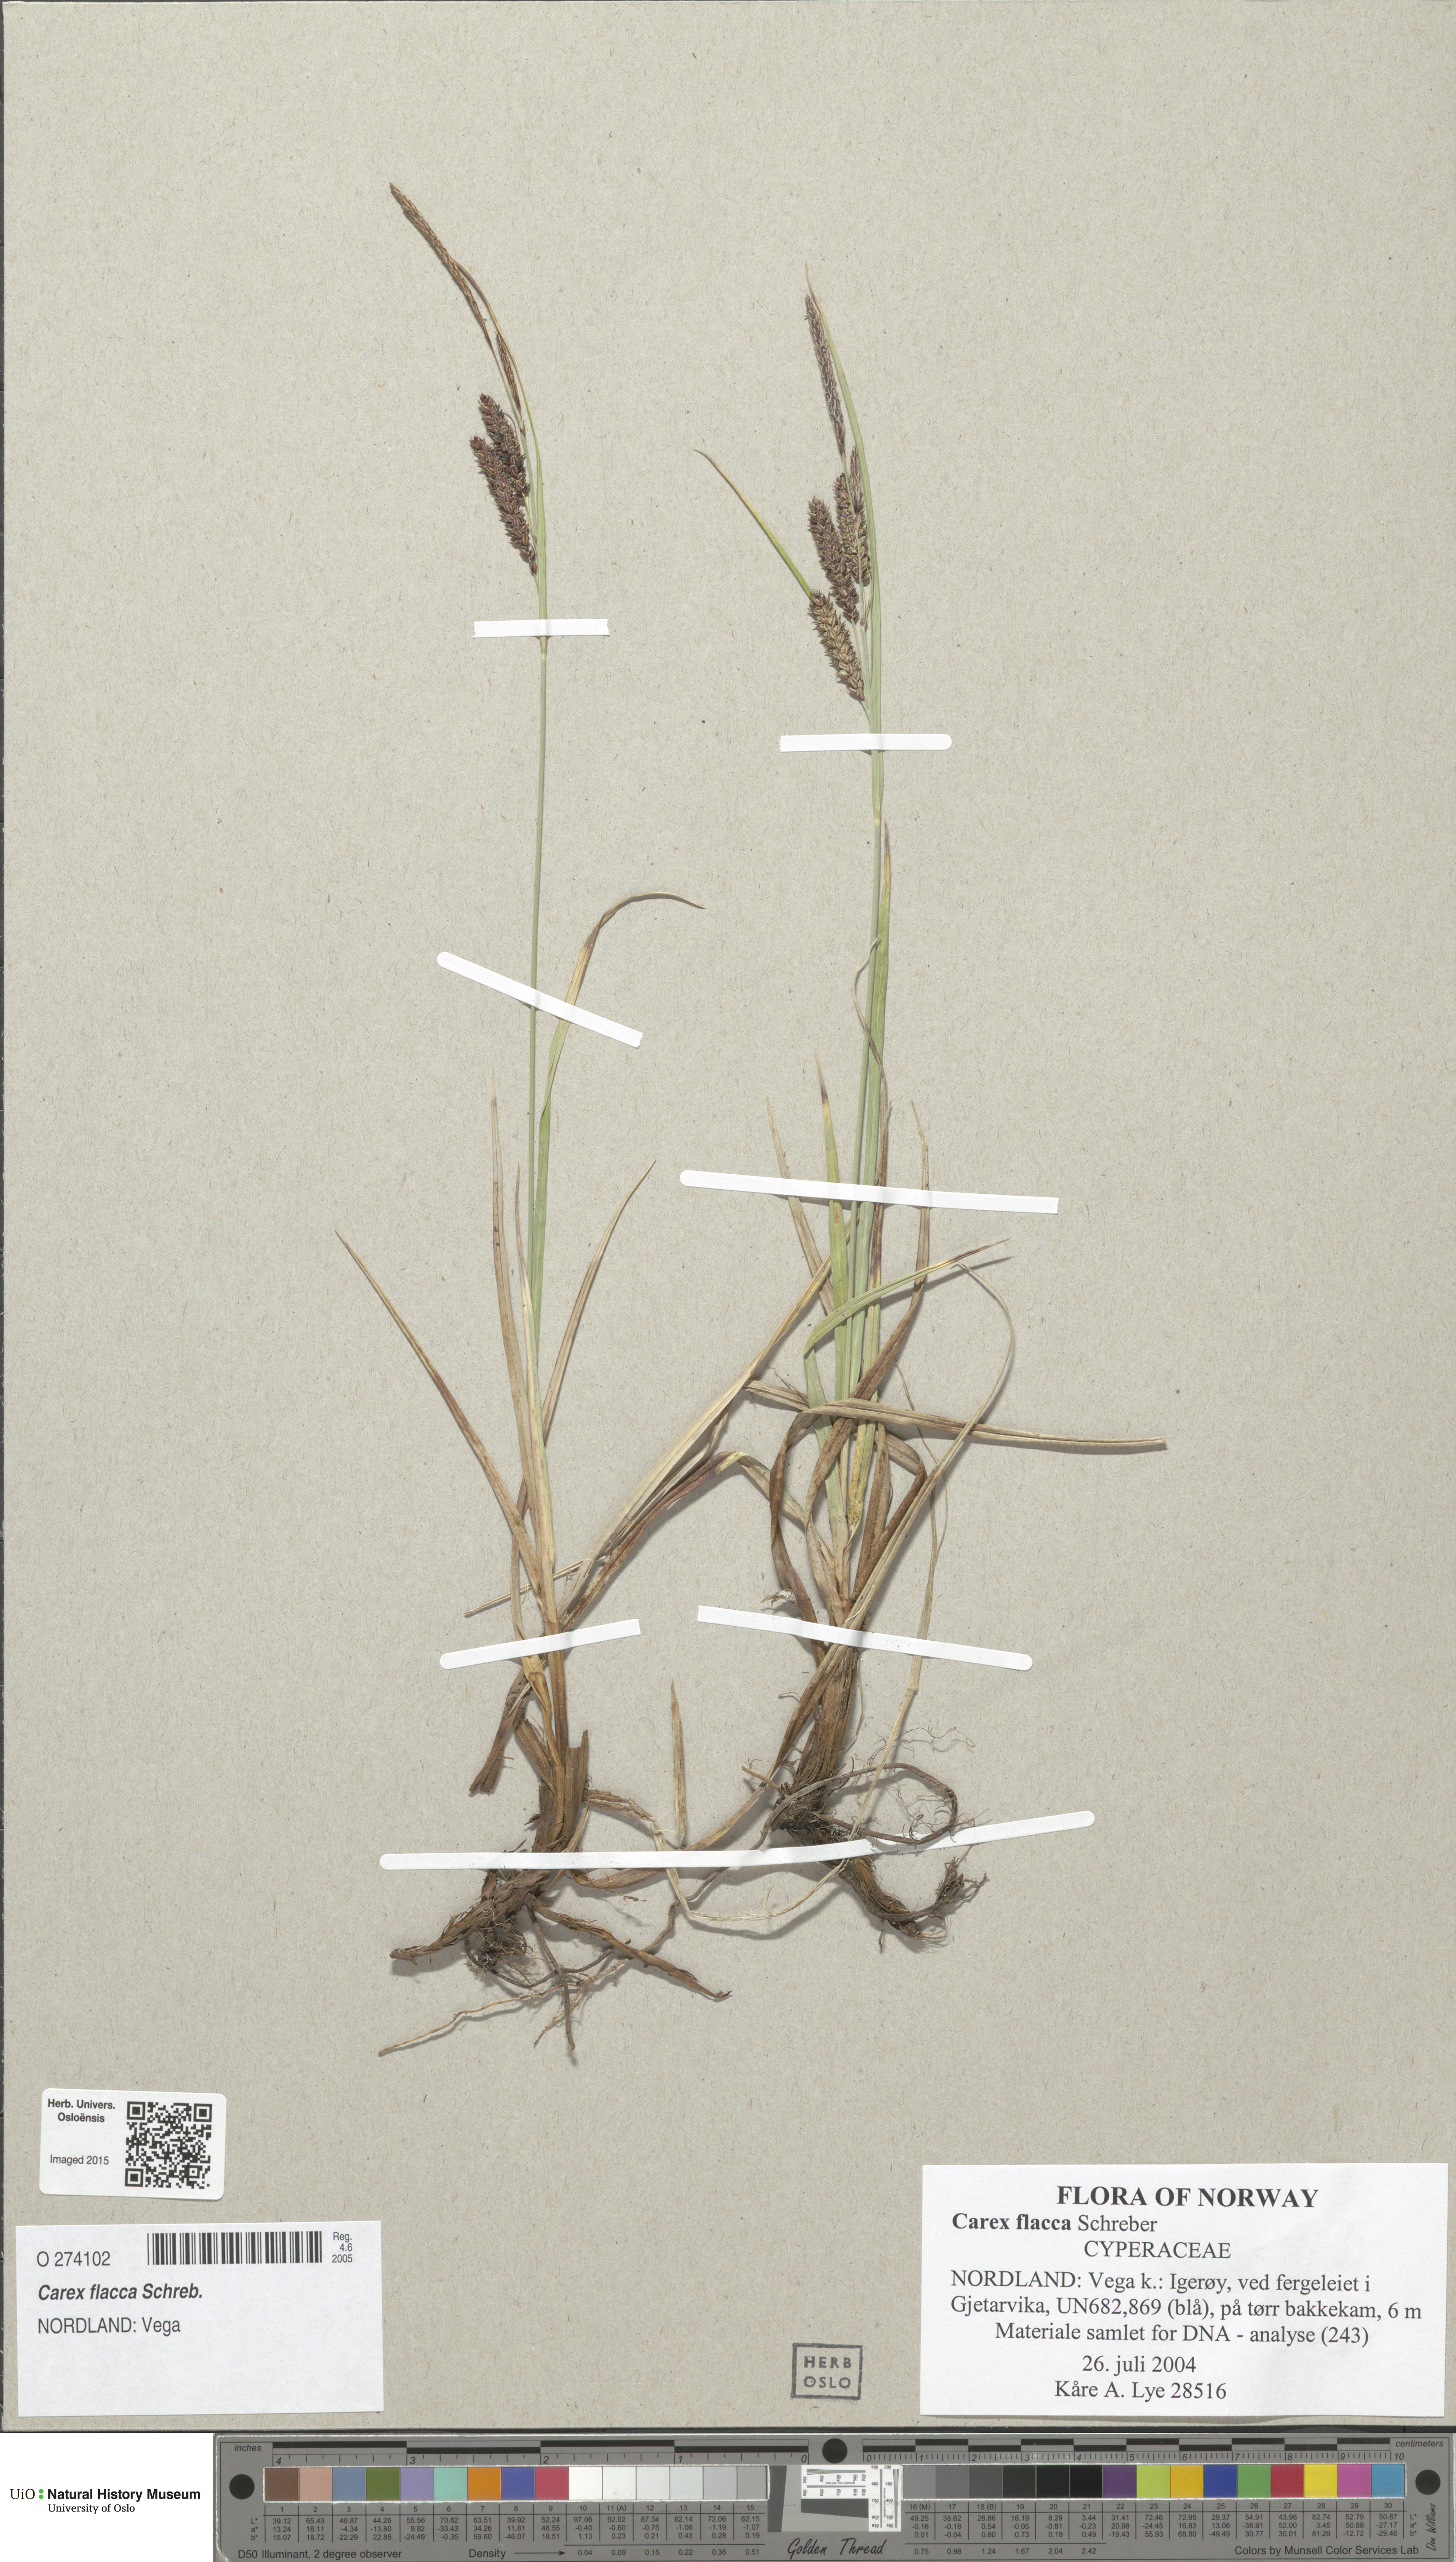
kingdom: Plantae
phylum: Tracheophyta
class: Liliopsida
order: Poales
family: Cyperaceae
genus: Carex
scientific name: Carex flacca
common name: Glaucous sedge
